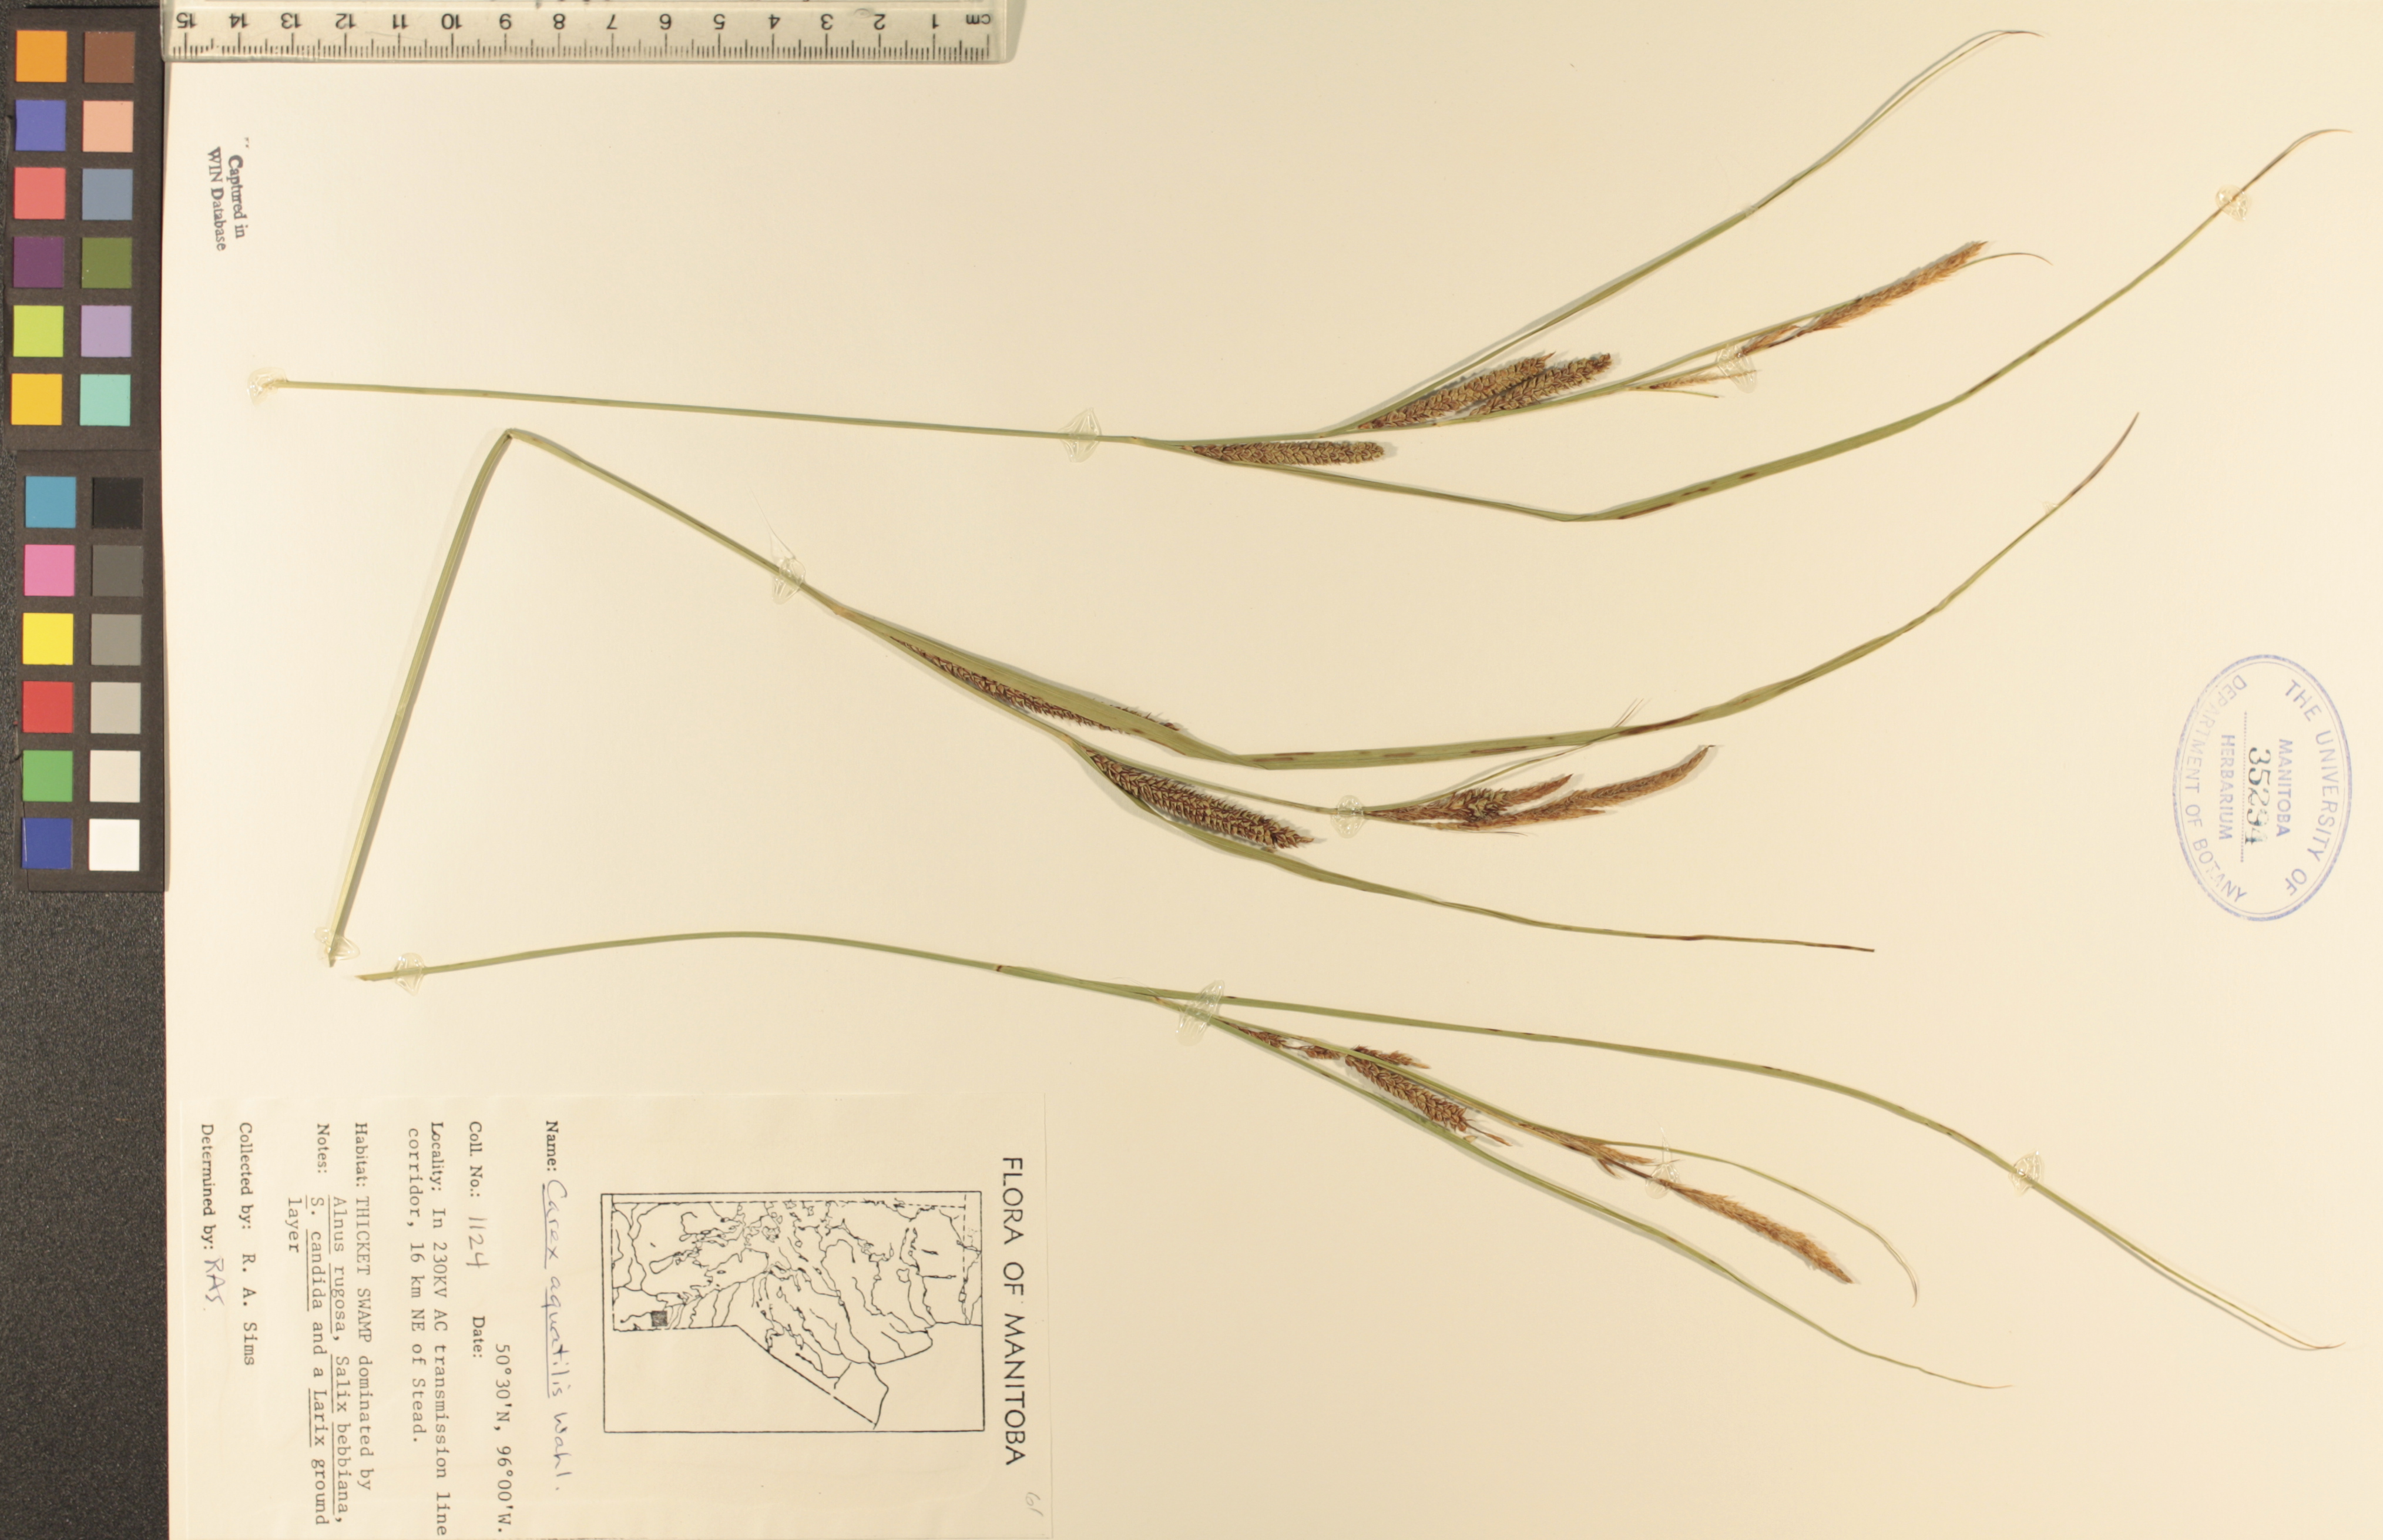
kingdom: Plantae
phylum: Tracheophyta
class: Liliopsida
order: Poales
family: Cyperaceae
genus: Carex
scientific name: Carex aquatilis
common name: Water sedge
